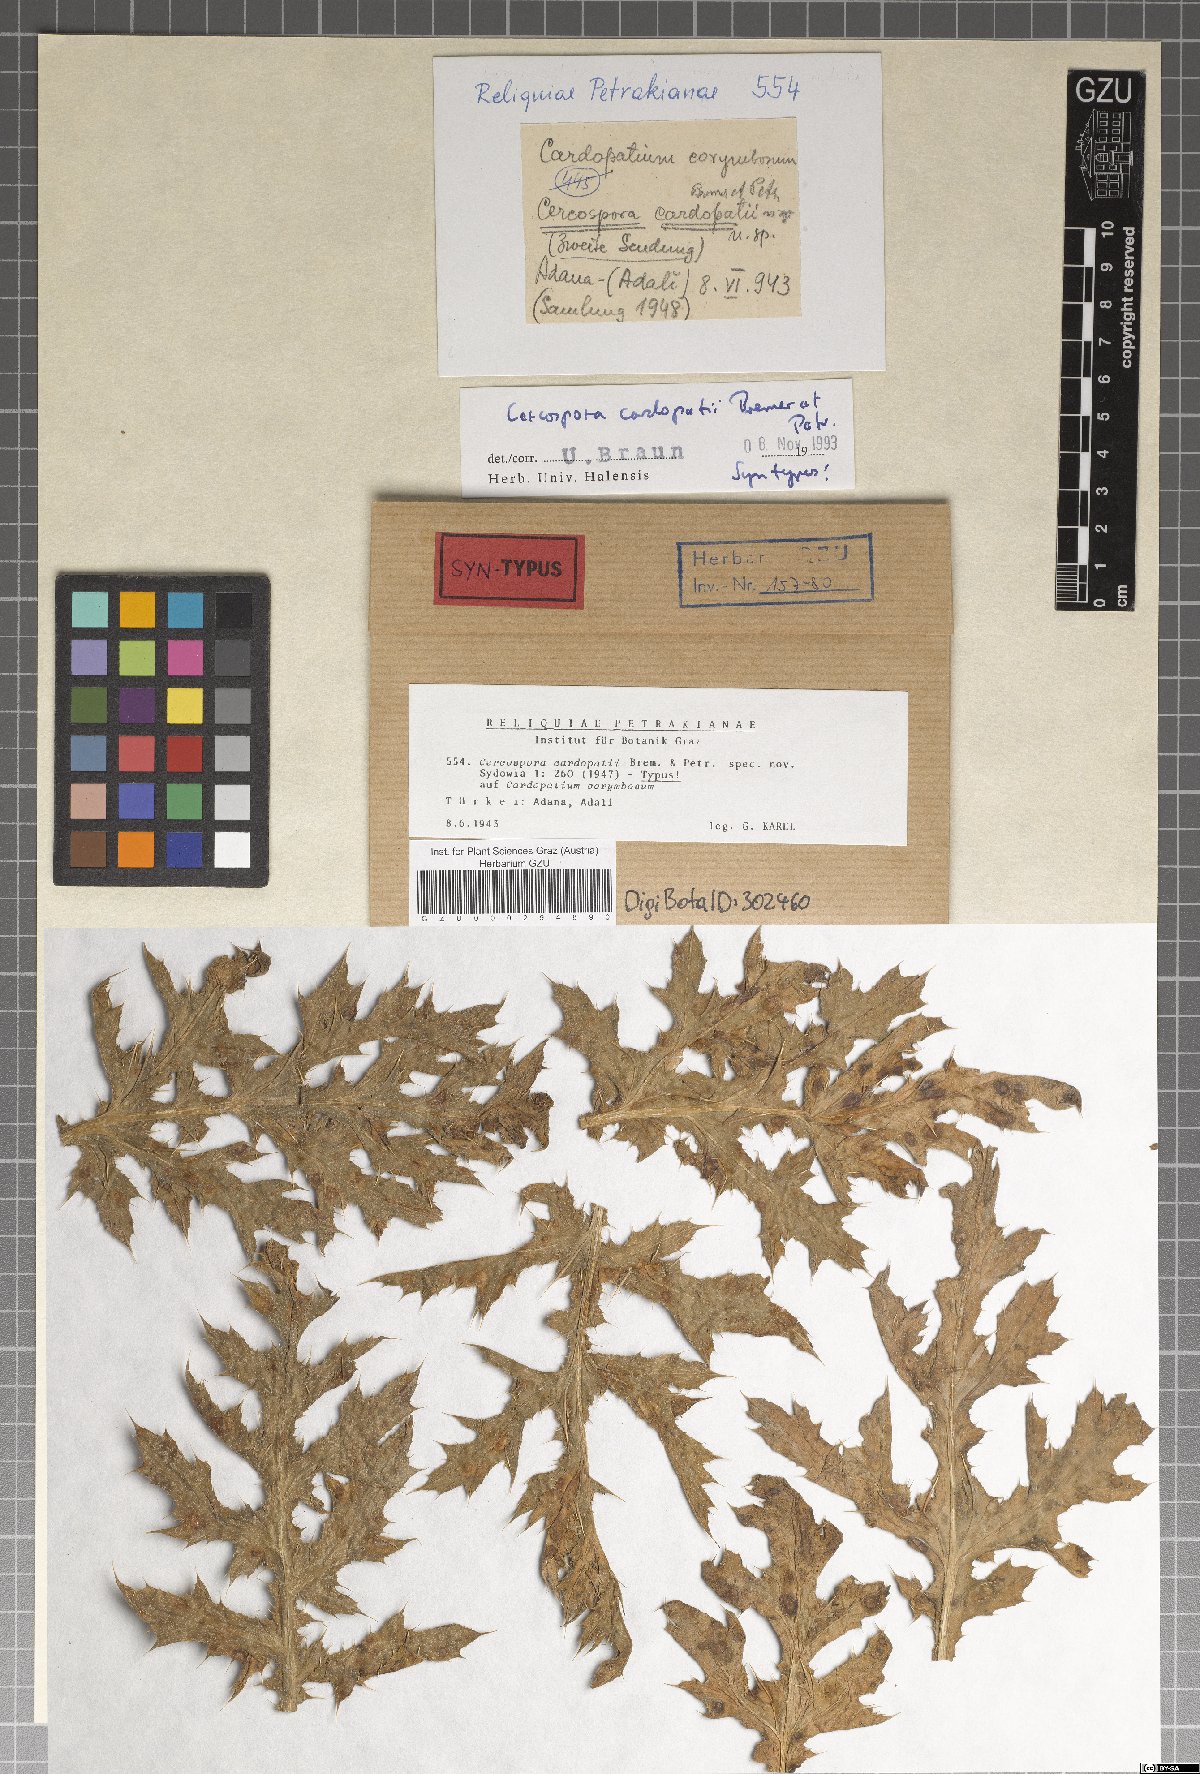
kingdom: Fungi
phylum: Ascomycota
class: Dothideomycetes
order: Mycosphaerellales
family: Mycosphaerellaceae
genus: Passalora
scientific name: Passalora cardopatii
